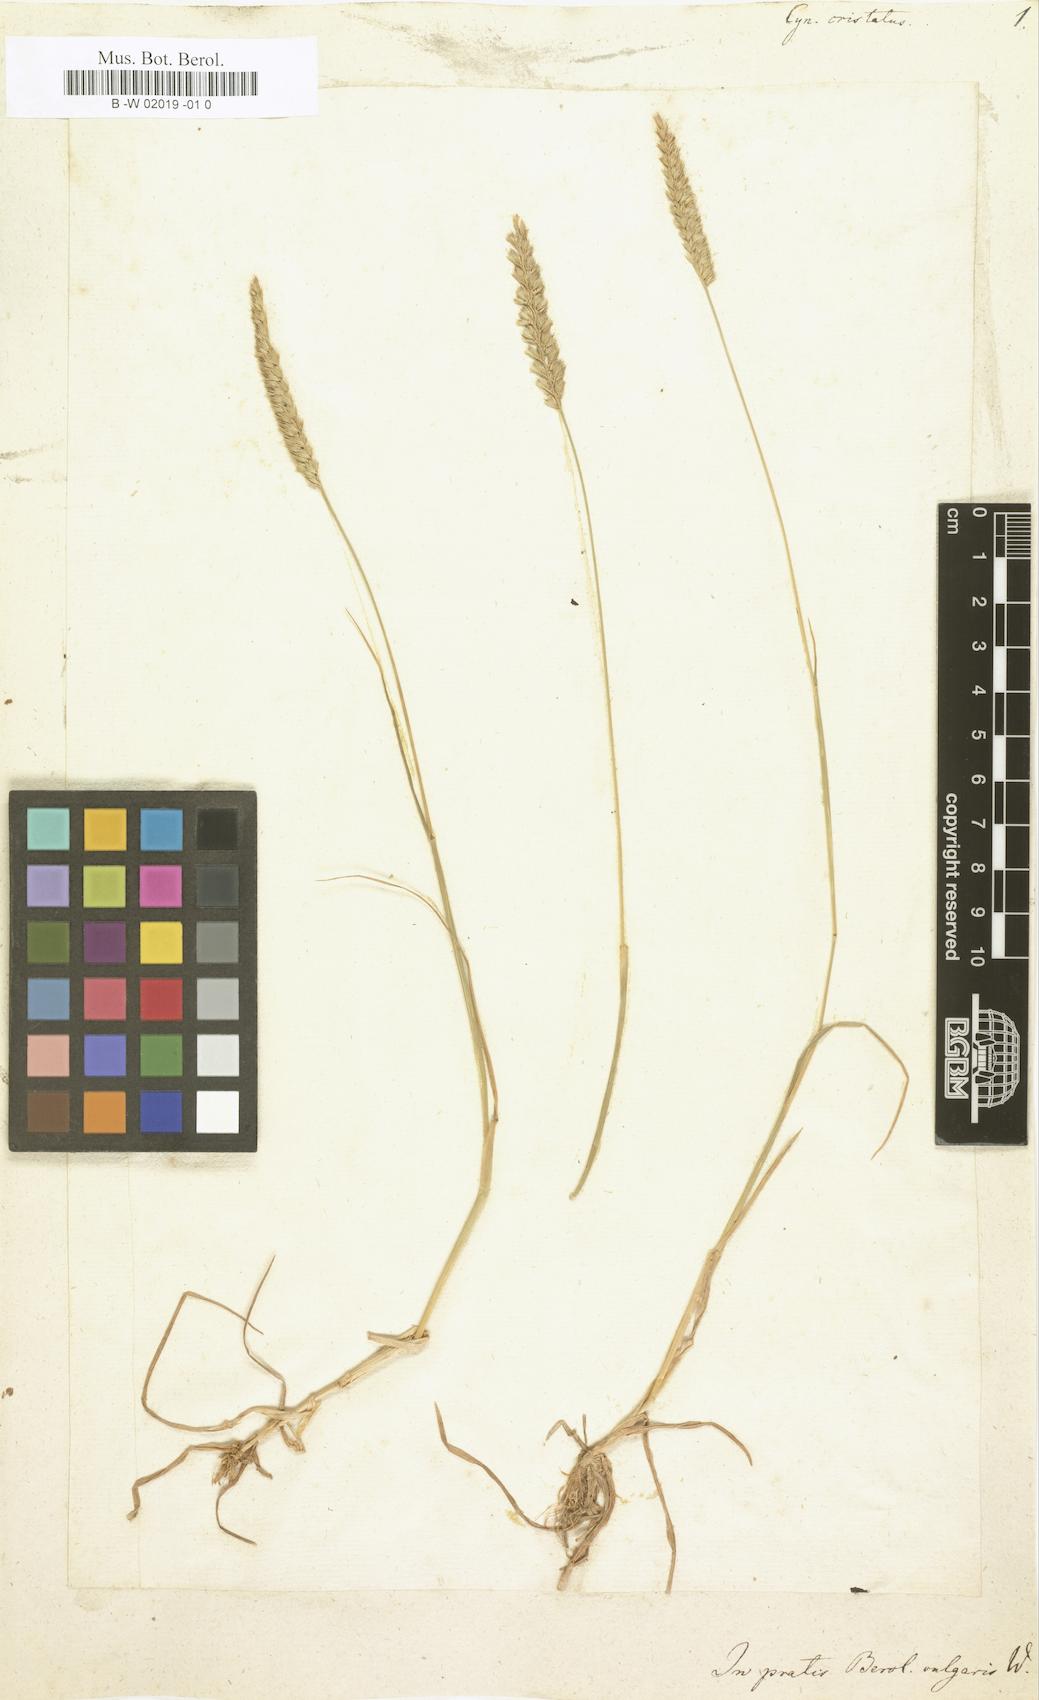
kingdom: Plantae
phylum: Tracheophyta
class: Liliopsida
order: Poales
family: Poaceae
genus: Cynosurus
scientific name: Cynosurus cristatus
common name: Crested dog's-tail
